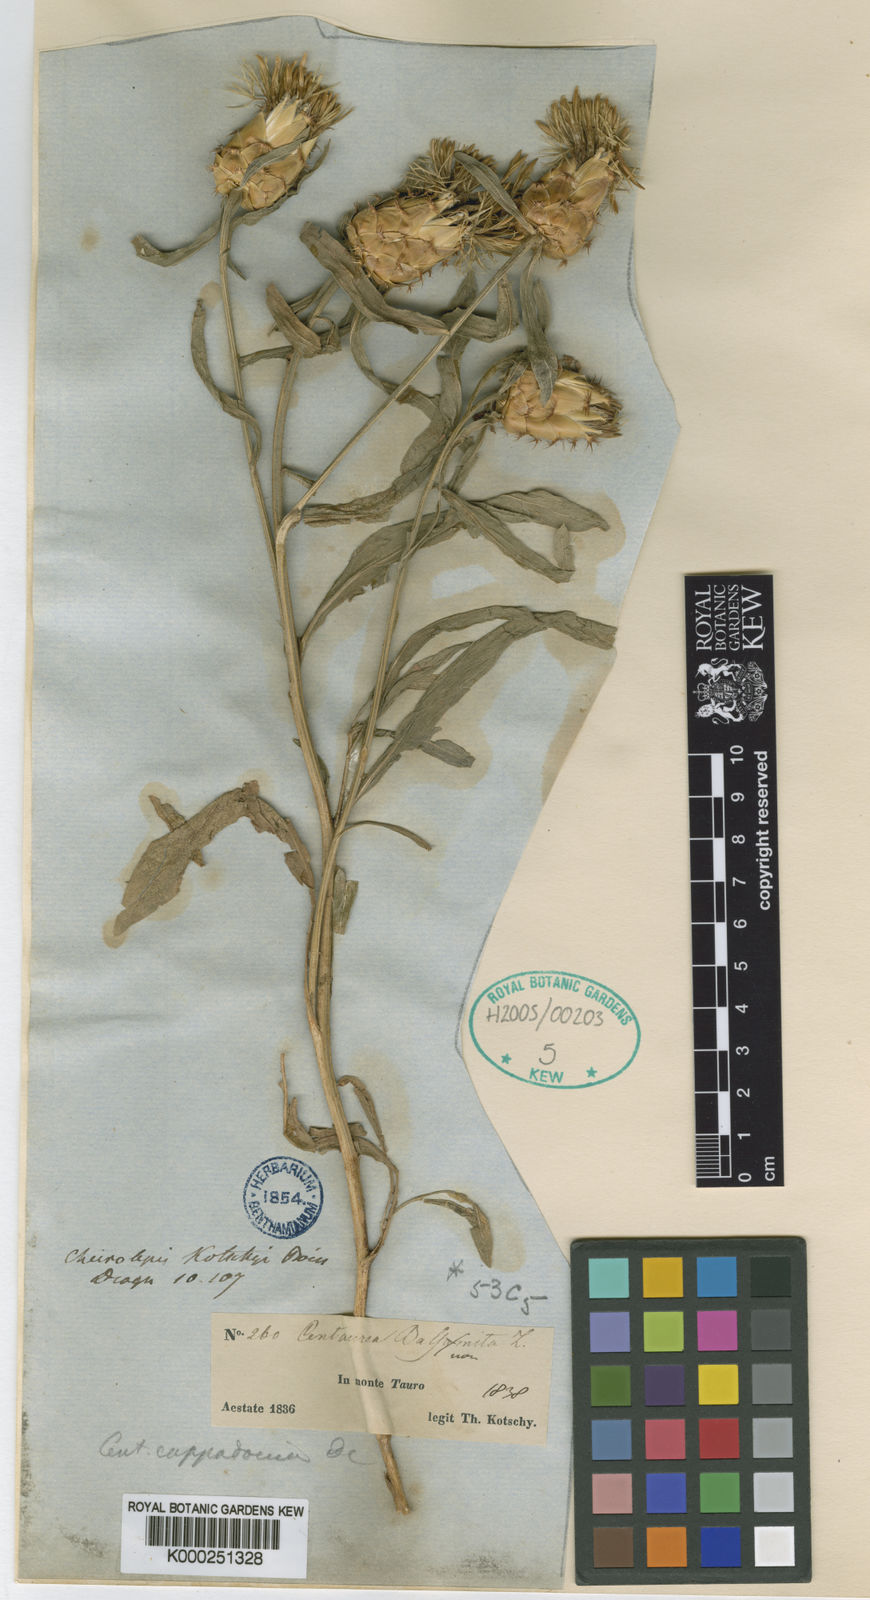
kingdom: Plantae
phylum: Tracheophyta
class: Magnoliopsida
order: Asterales
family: Asteraceae
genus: Centaurea
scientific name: Centaurea kotschyi
